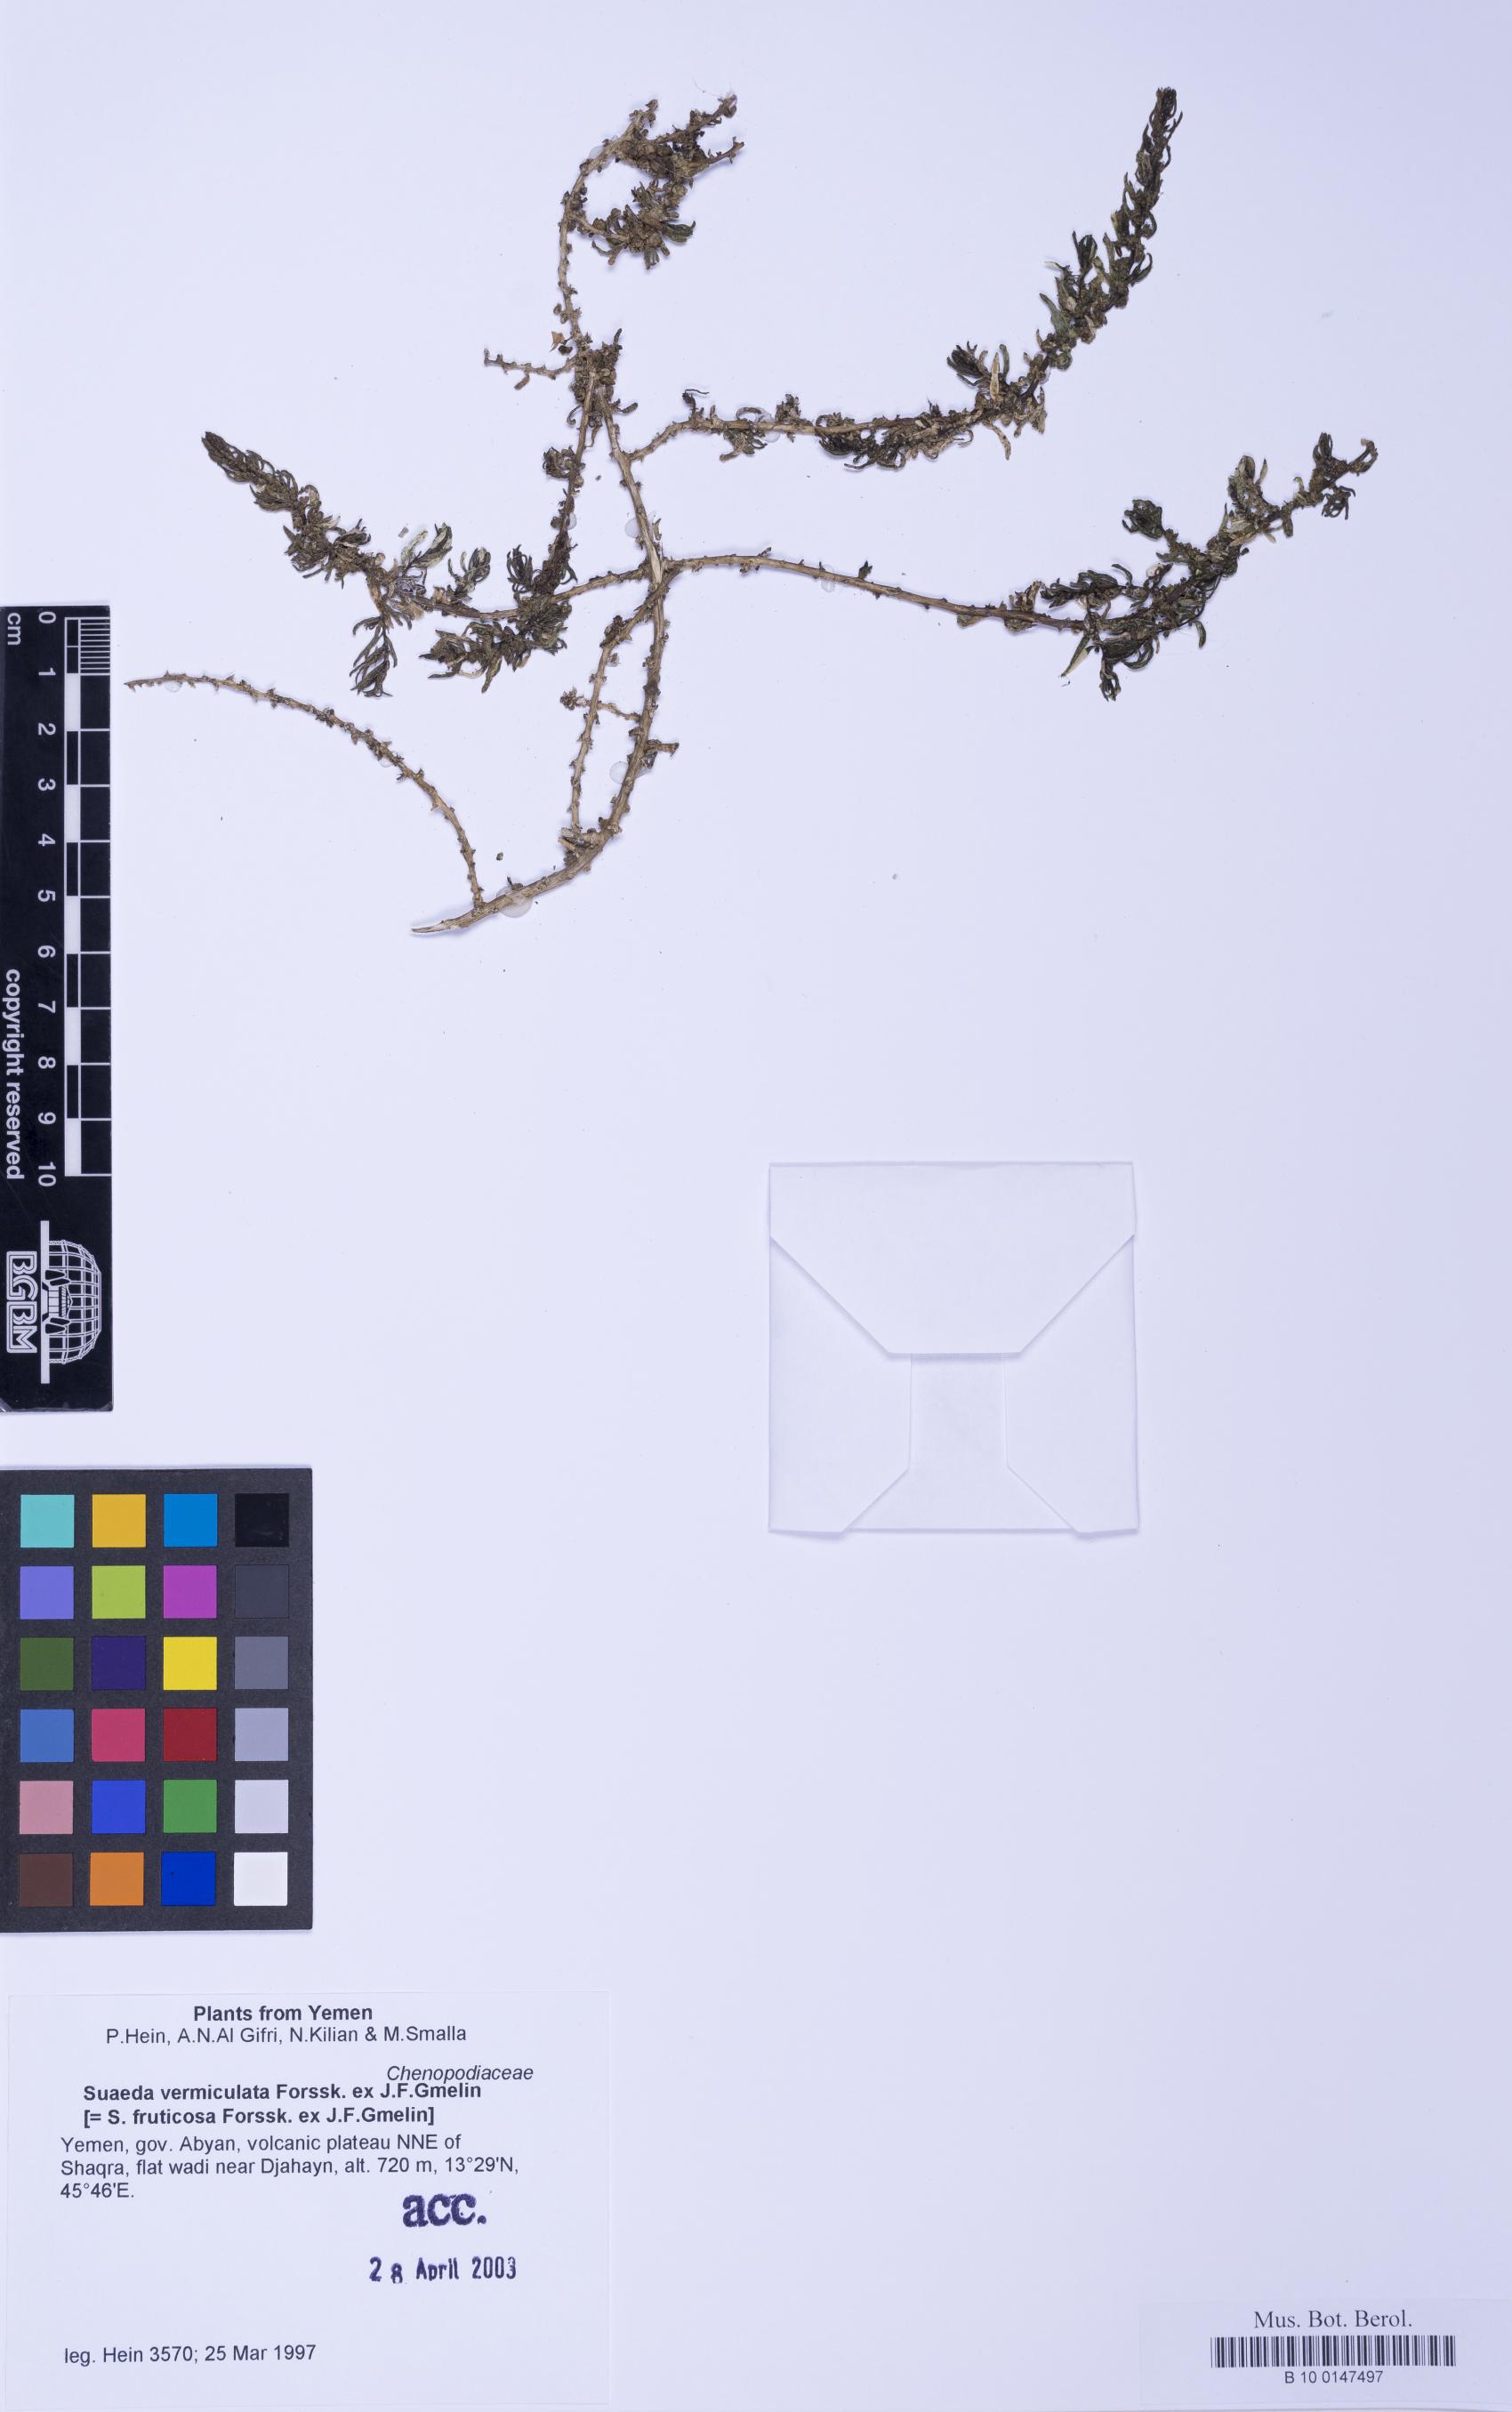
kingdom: Plantae
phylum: Tracheophyta
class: Magnoliopsida
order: Caryophyllales
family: Amaranthaceae
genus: Suaeda
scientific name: Suaeda vermiculata
